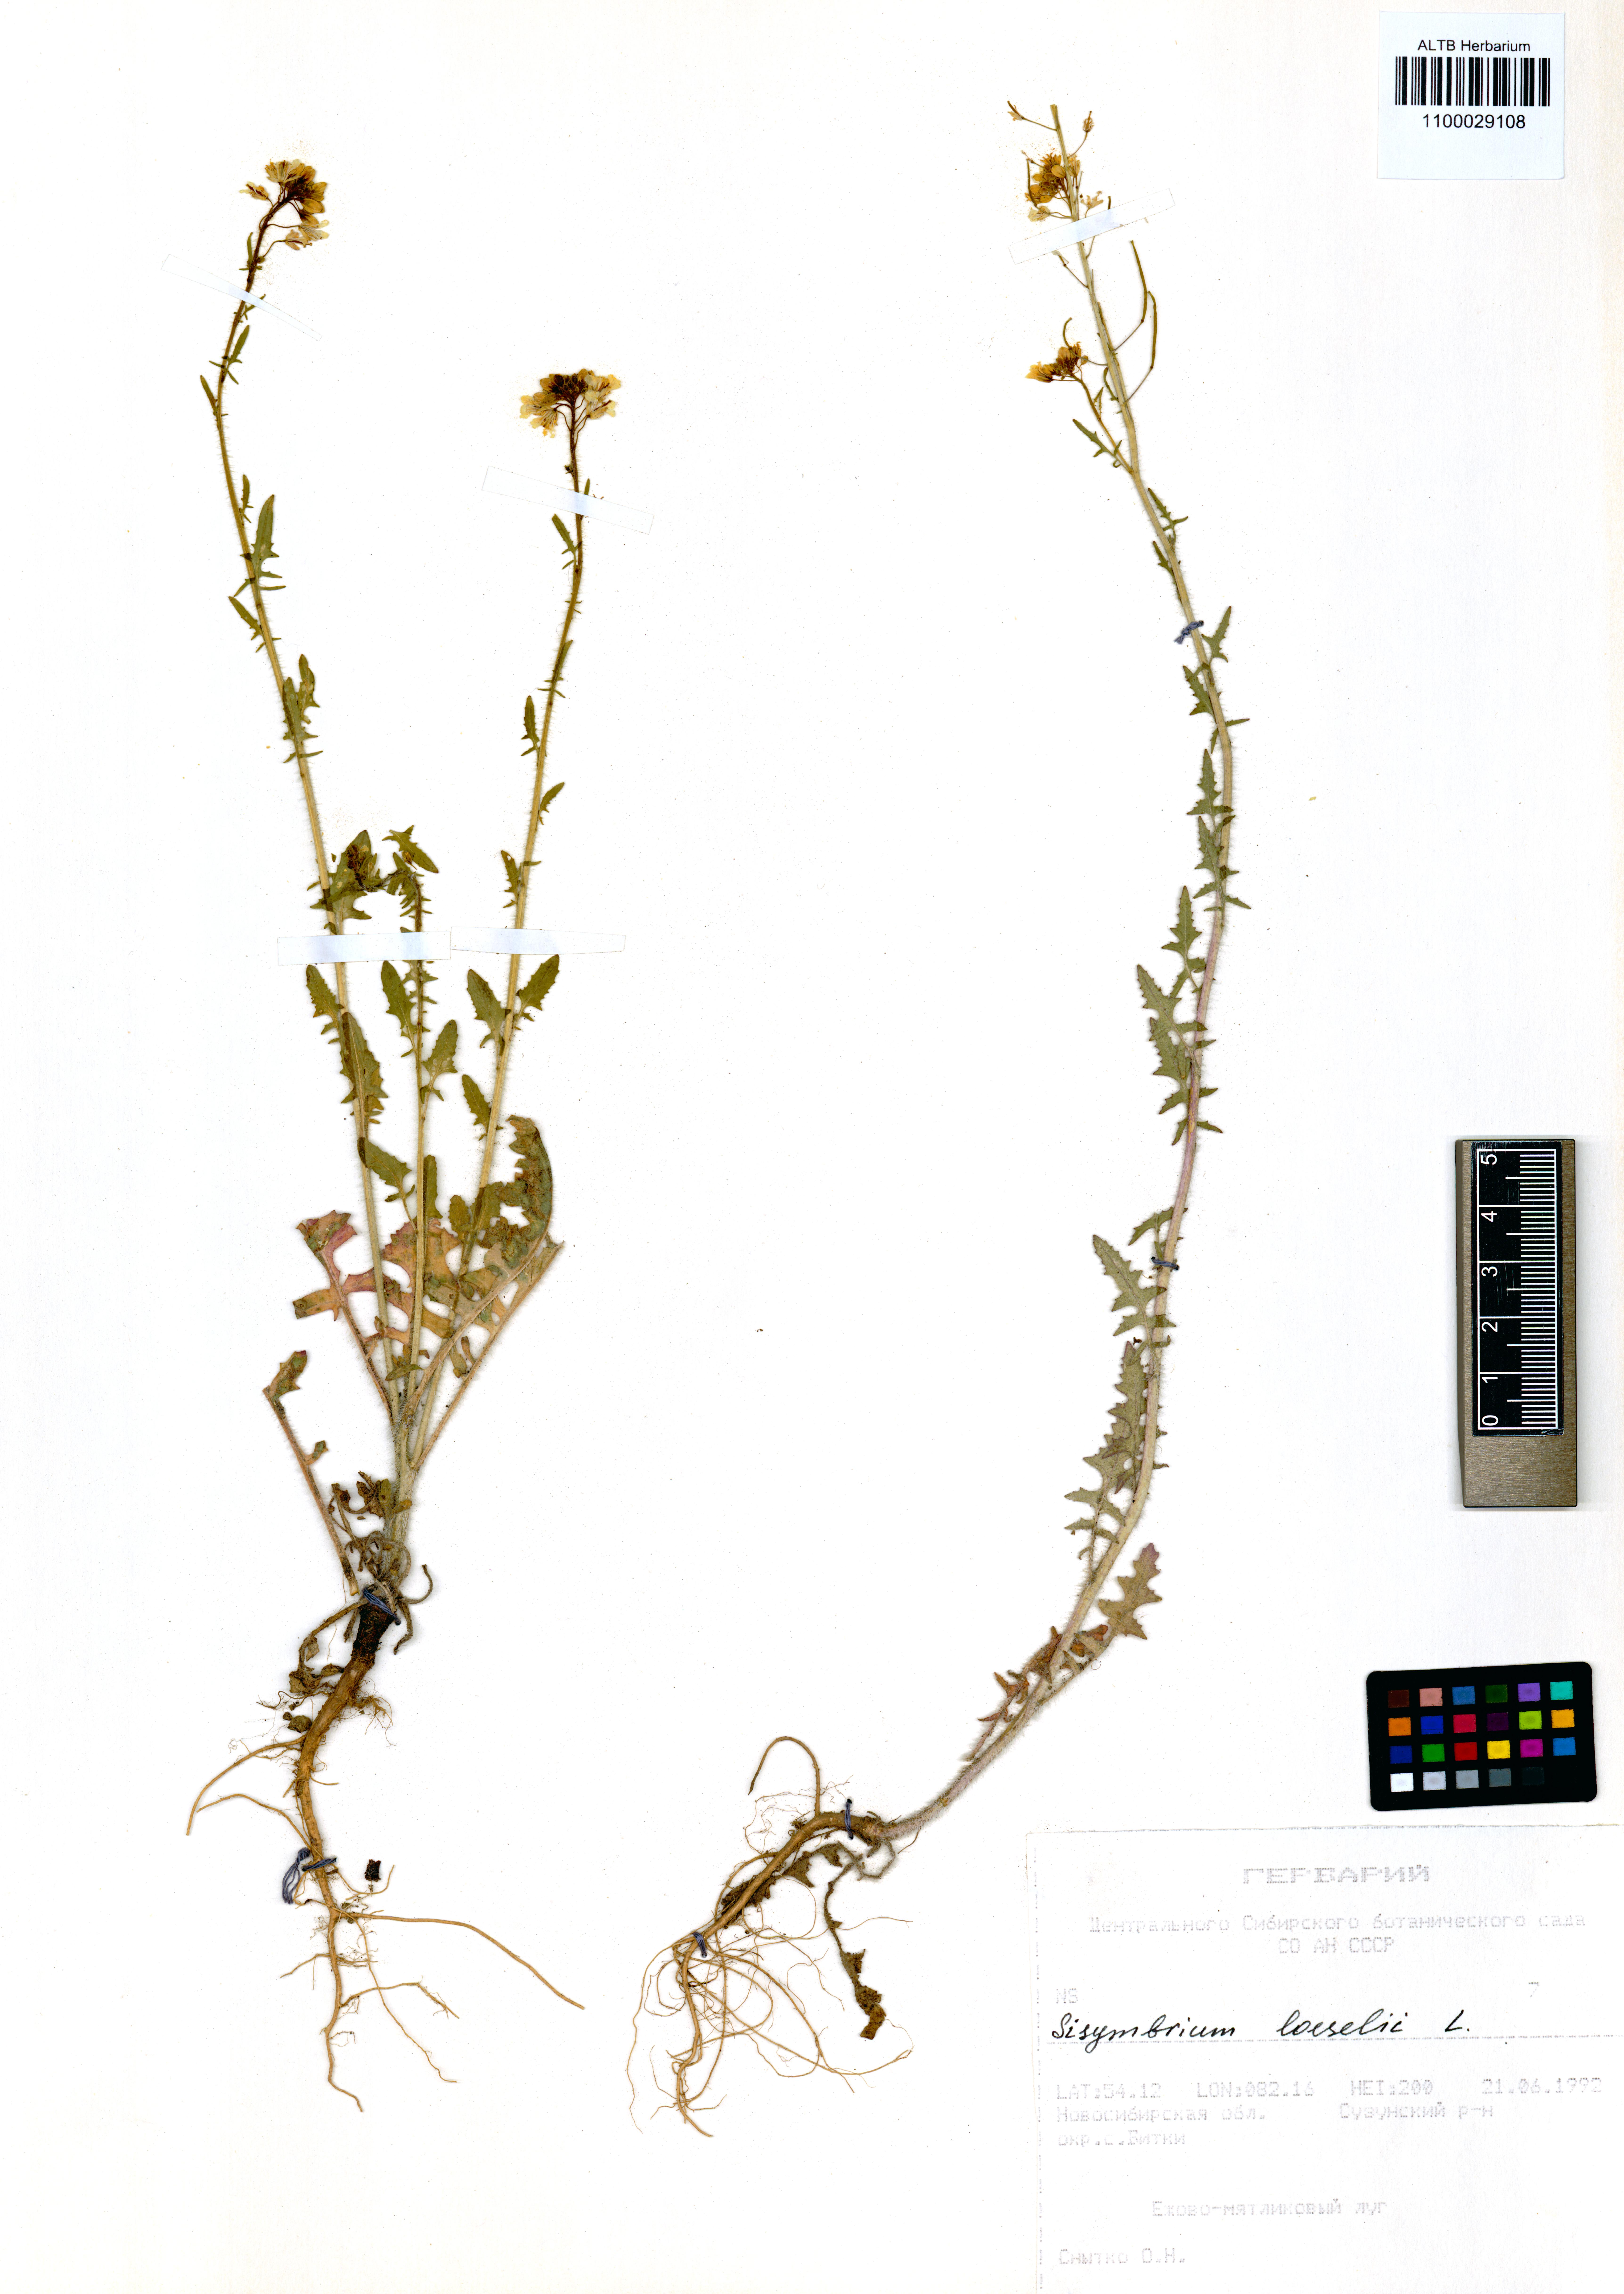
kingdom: Plantae
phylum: Tracheophyta
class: Magnoliopsida
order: Brassicales
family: Brassicaceae
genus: Sisymbrium
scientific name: Sisymbrium loeselii
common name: False london-rocket
